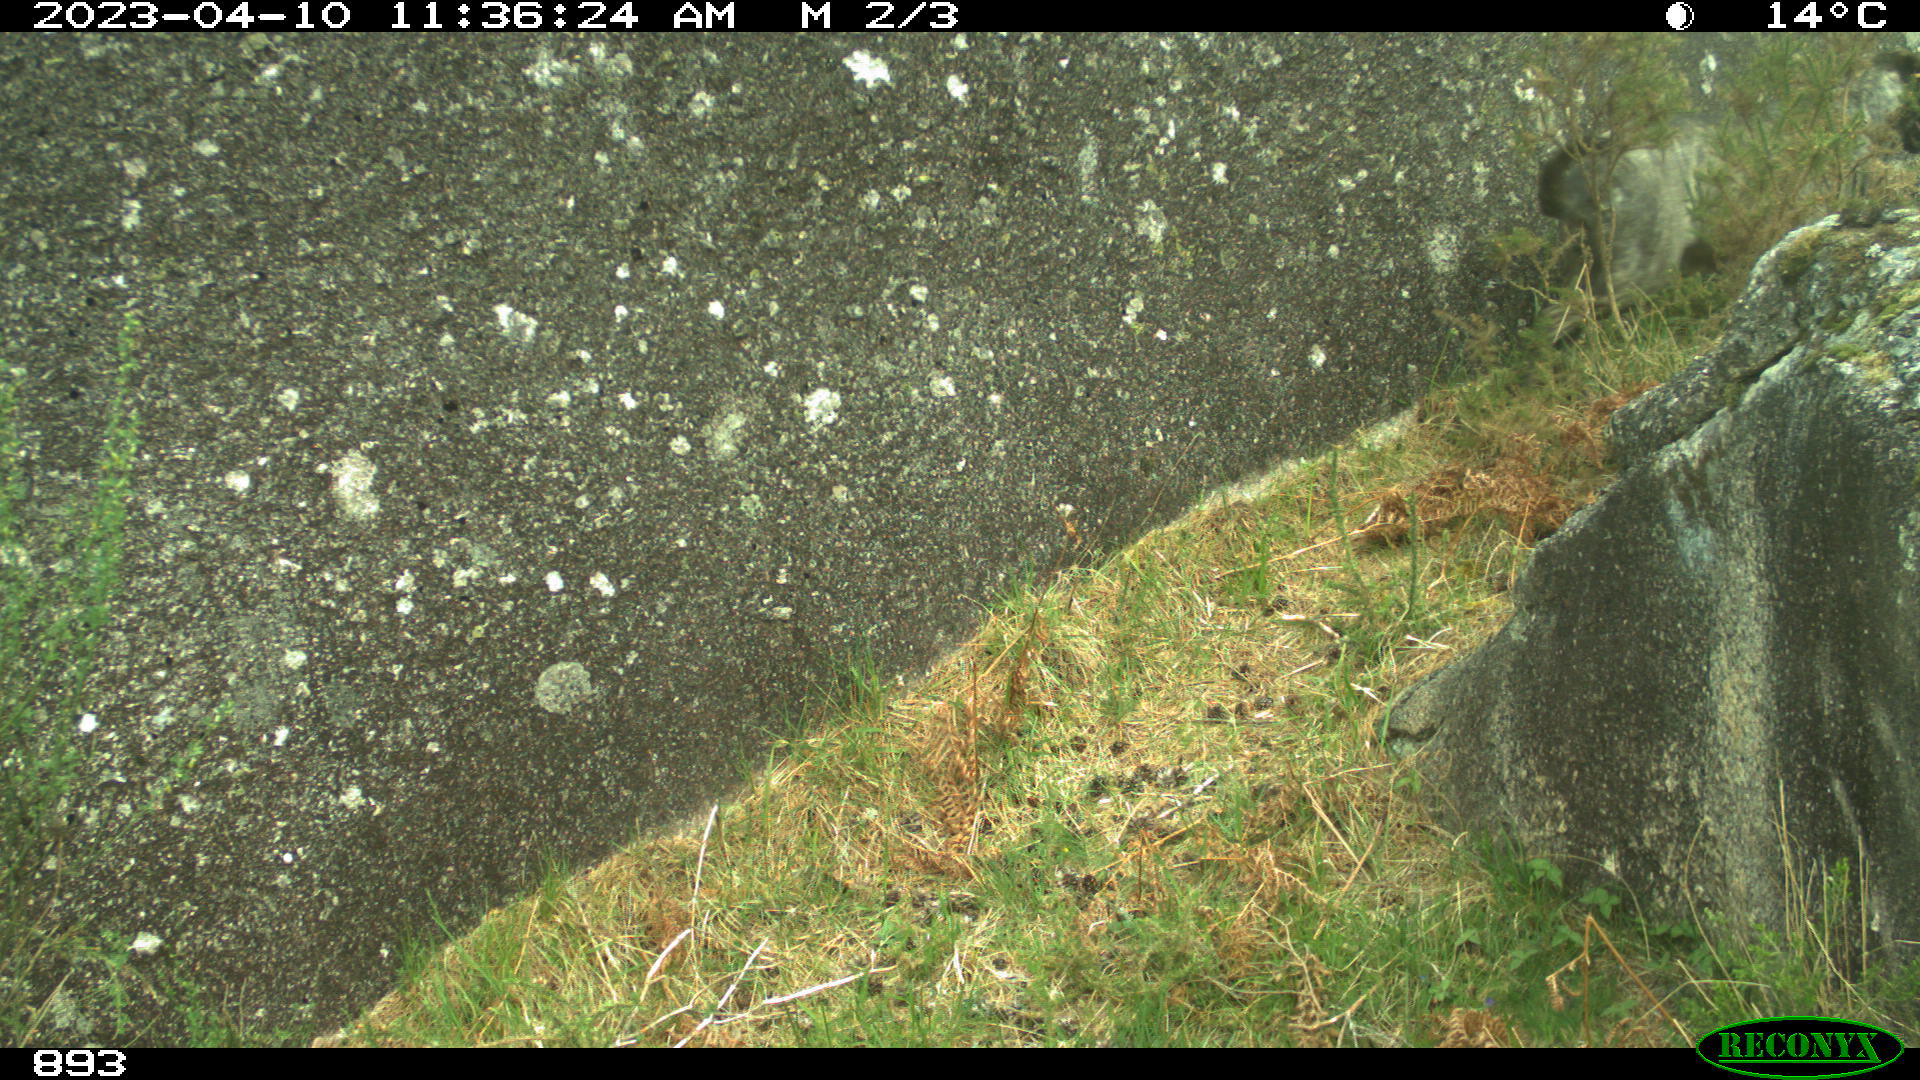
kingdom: Animalia
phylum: Chordata
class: Mammalia
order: Carnivora
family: Canidae
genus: Canis
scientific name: Canis lupus
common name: Gray wolf
